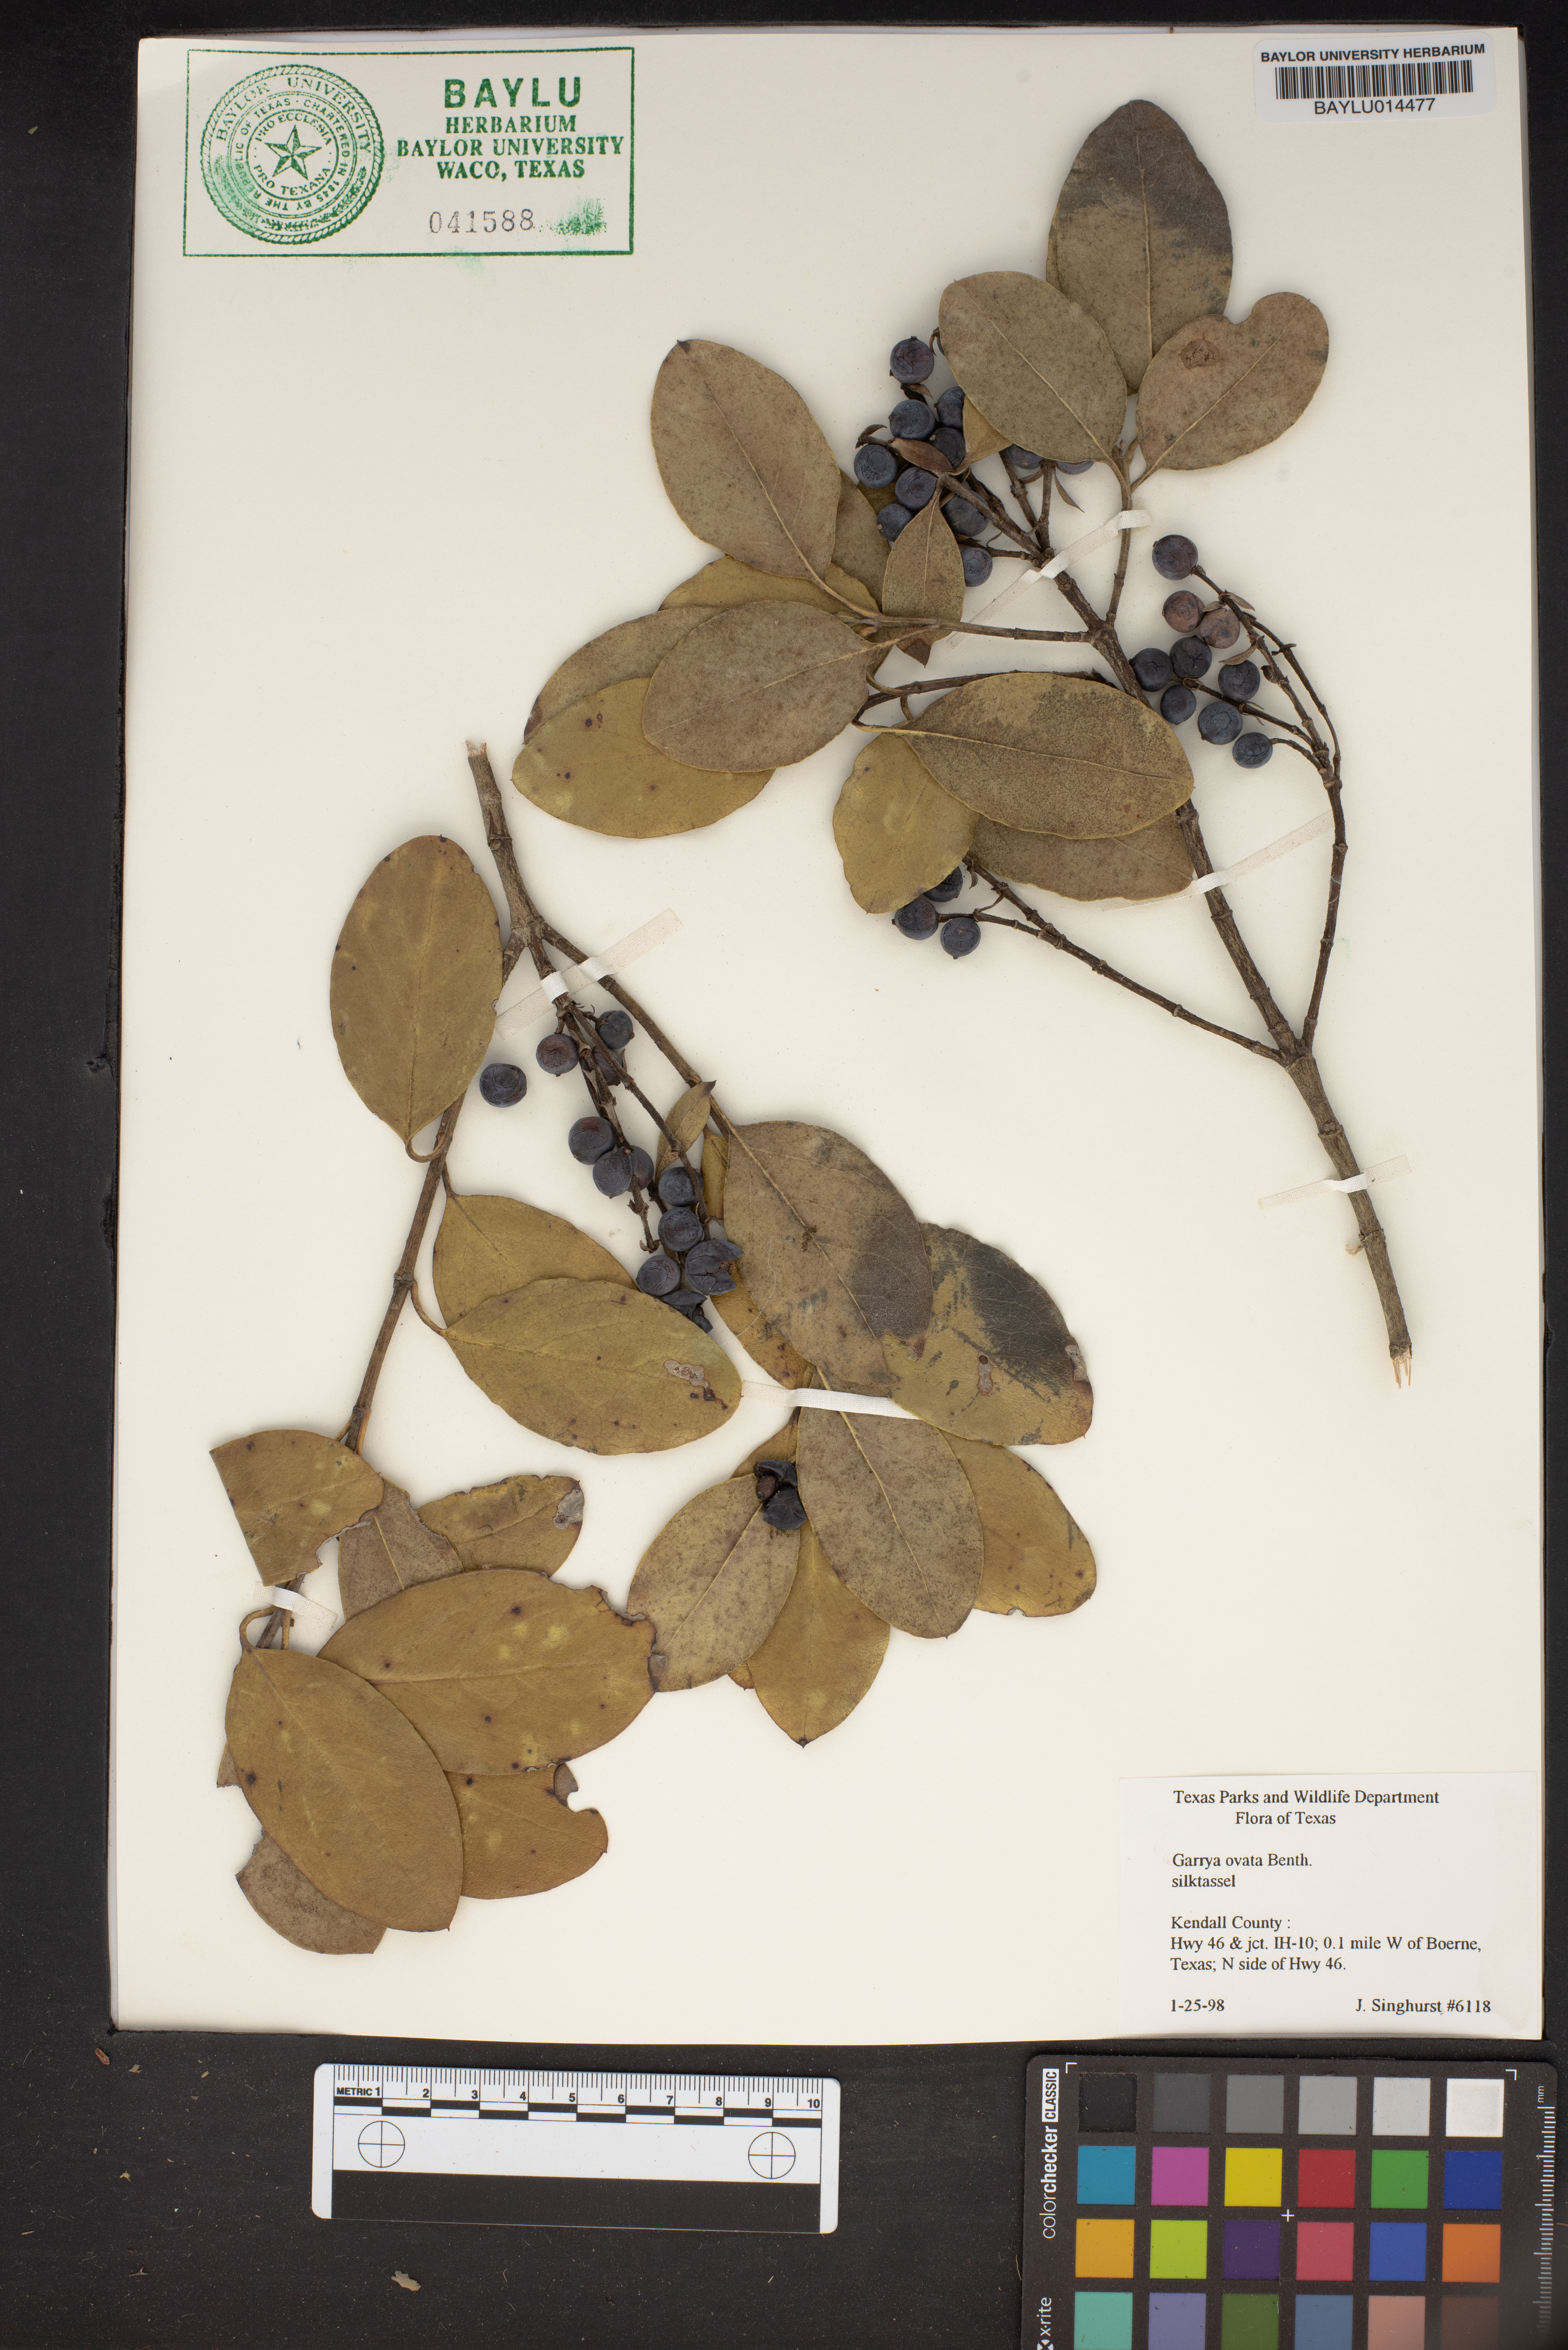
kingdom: Plantae
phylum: Tracheophyta
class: Magnoliopsida
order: Garryales
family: Garryaceae
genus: Garrya
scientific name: Garrya ovata
